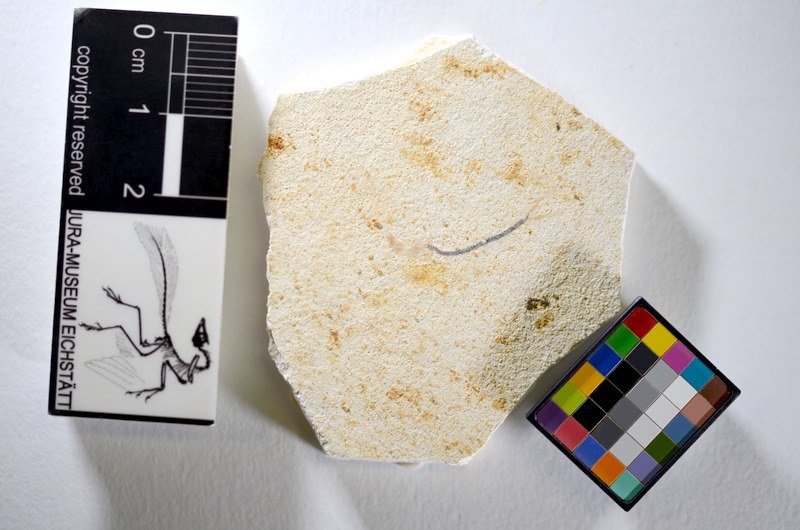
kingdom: Animalia
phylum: Chordata
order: Salmoniformes
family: Orthogonikleithridae
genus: Orthogonikleithrus
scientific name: Orthogonikleithrus hoelli
